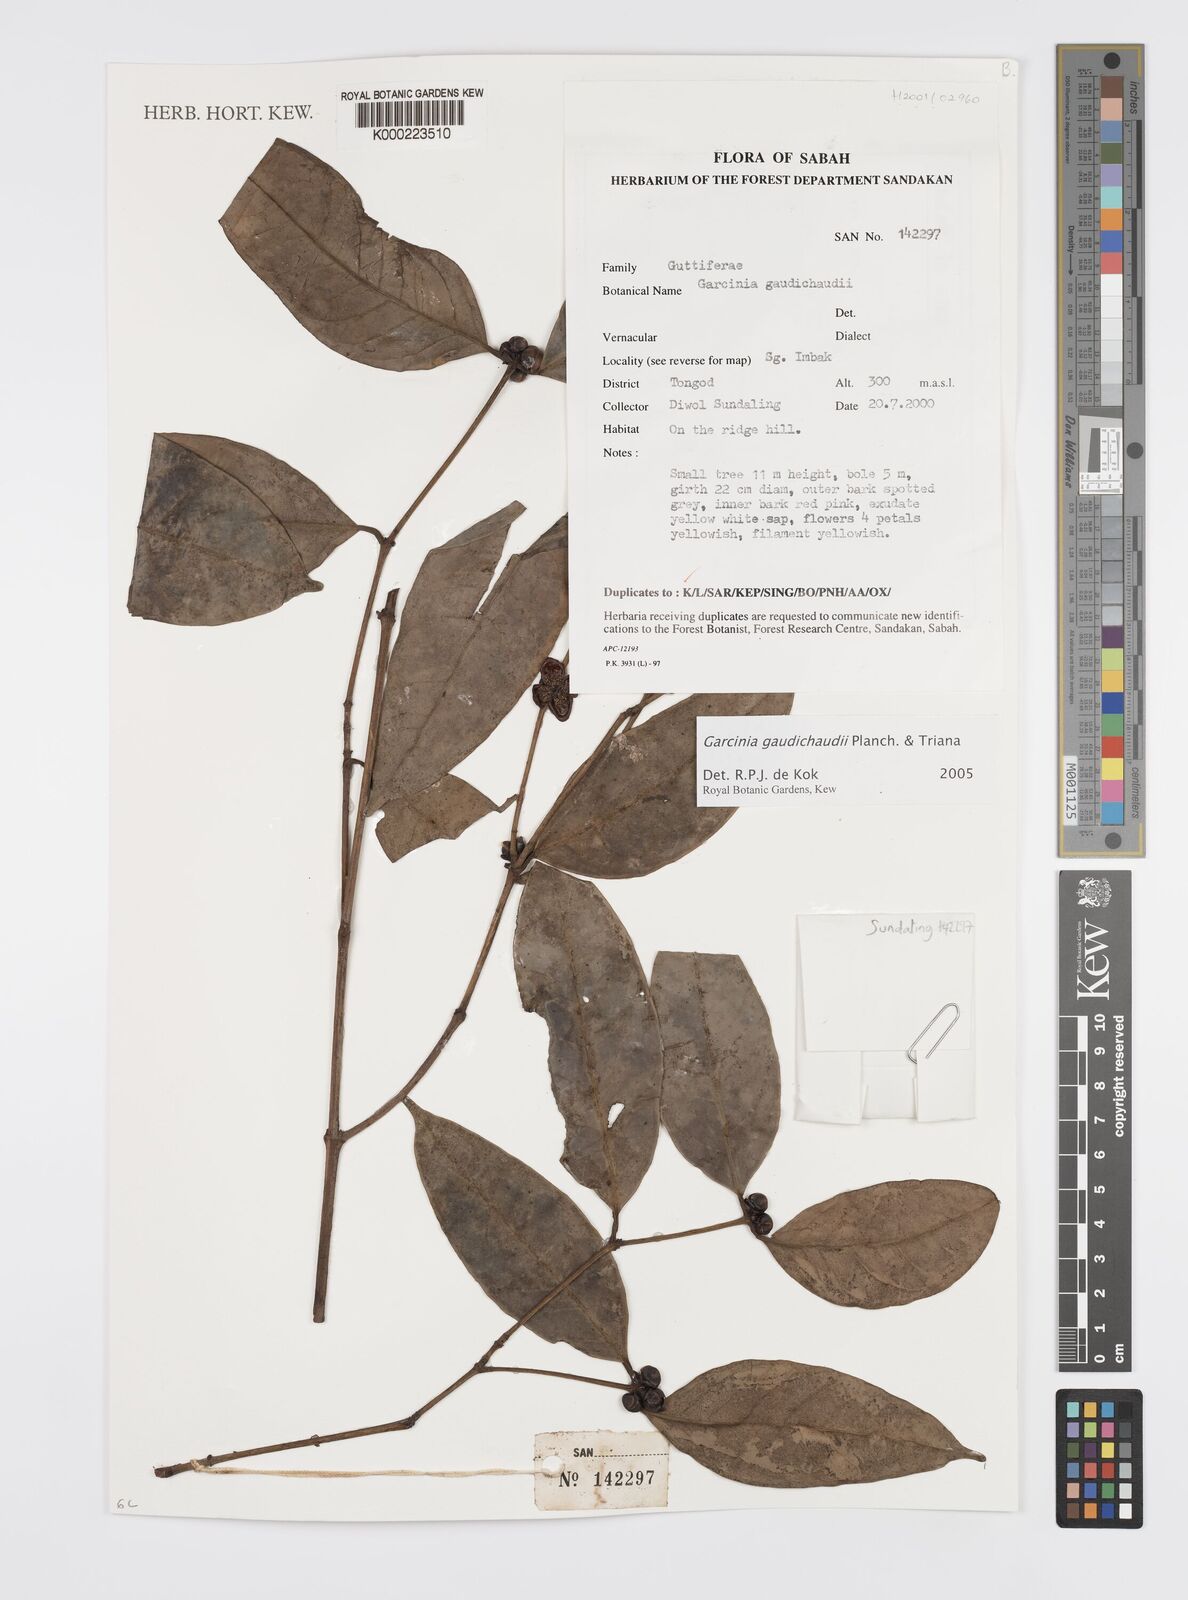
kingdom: Plantae
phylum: Tracheophyta
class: Magnoliopsida
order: Malpighiales
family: Clusiaceae
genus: Garcinia
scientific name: Garcinia gaudichaudii
